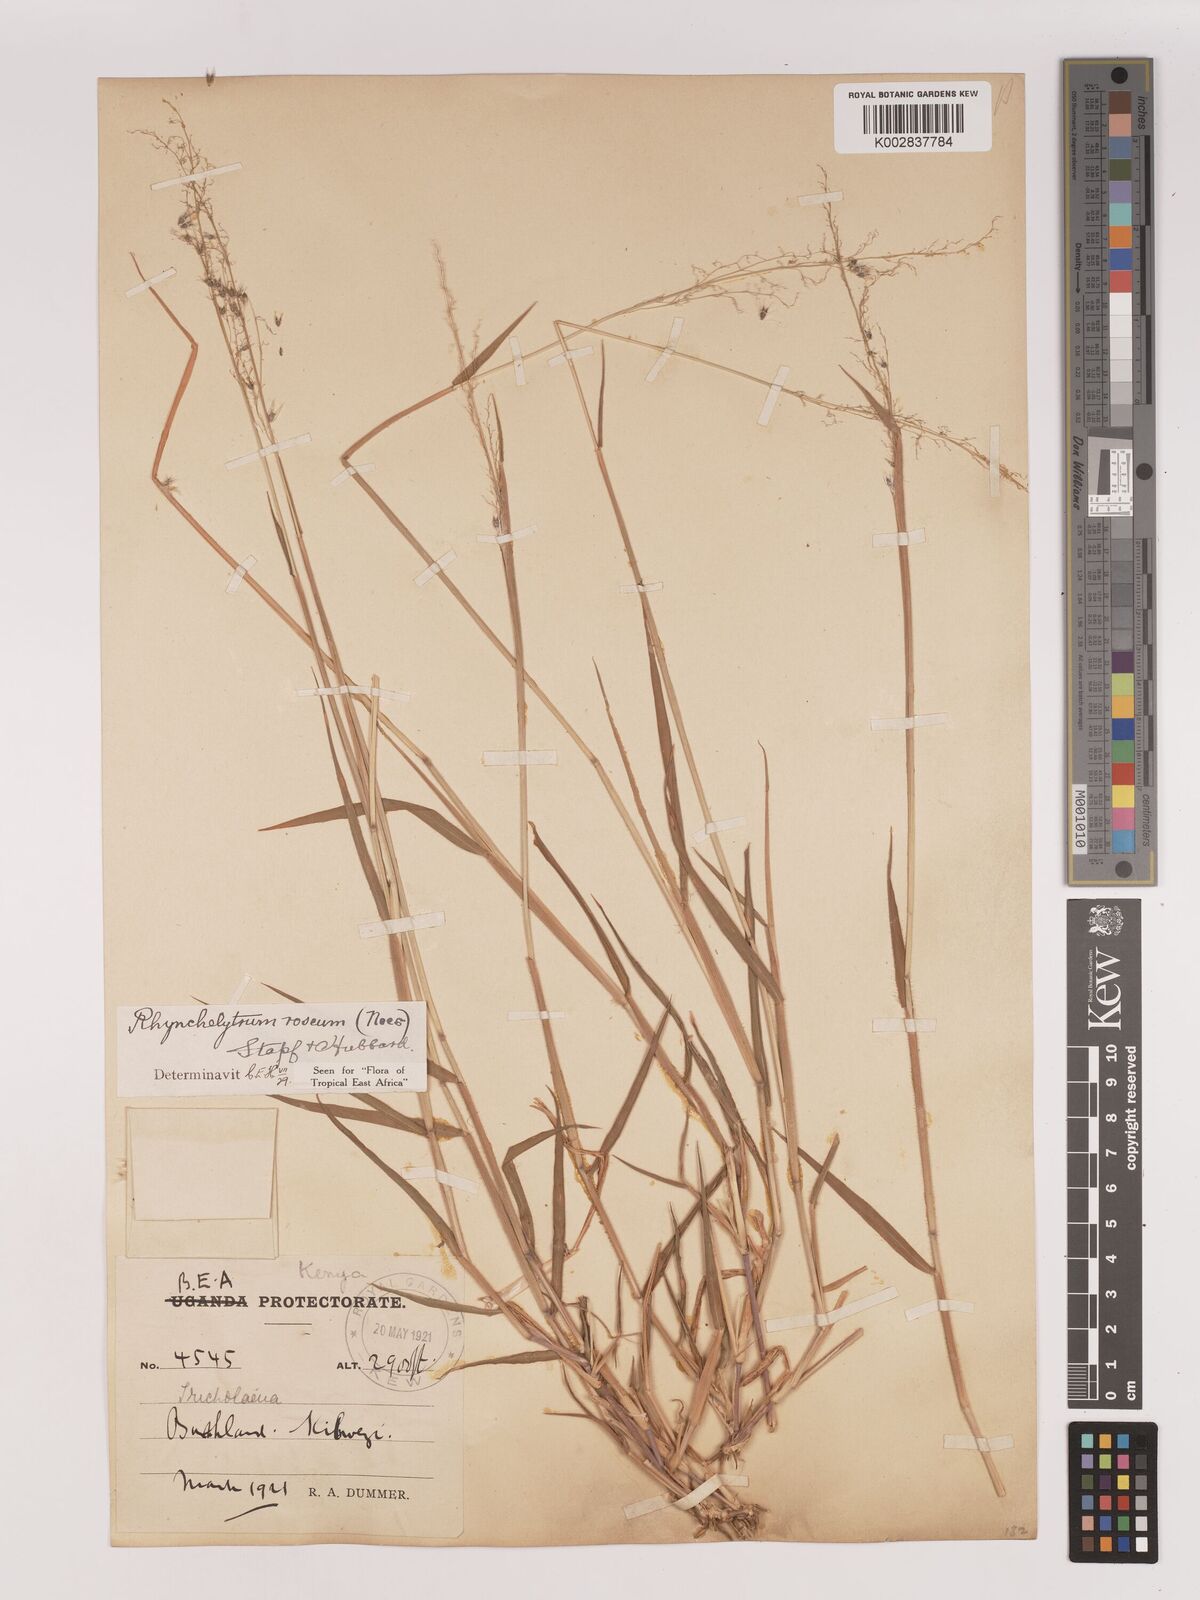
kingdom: Plantae
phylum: Tracheophyta
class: Liliopsida
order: Poales
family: Poaceae
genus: Melinis
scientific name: Melinis repens
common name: Rose natal grass
